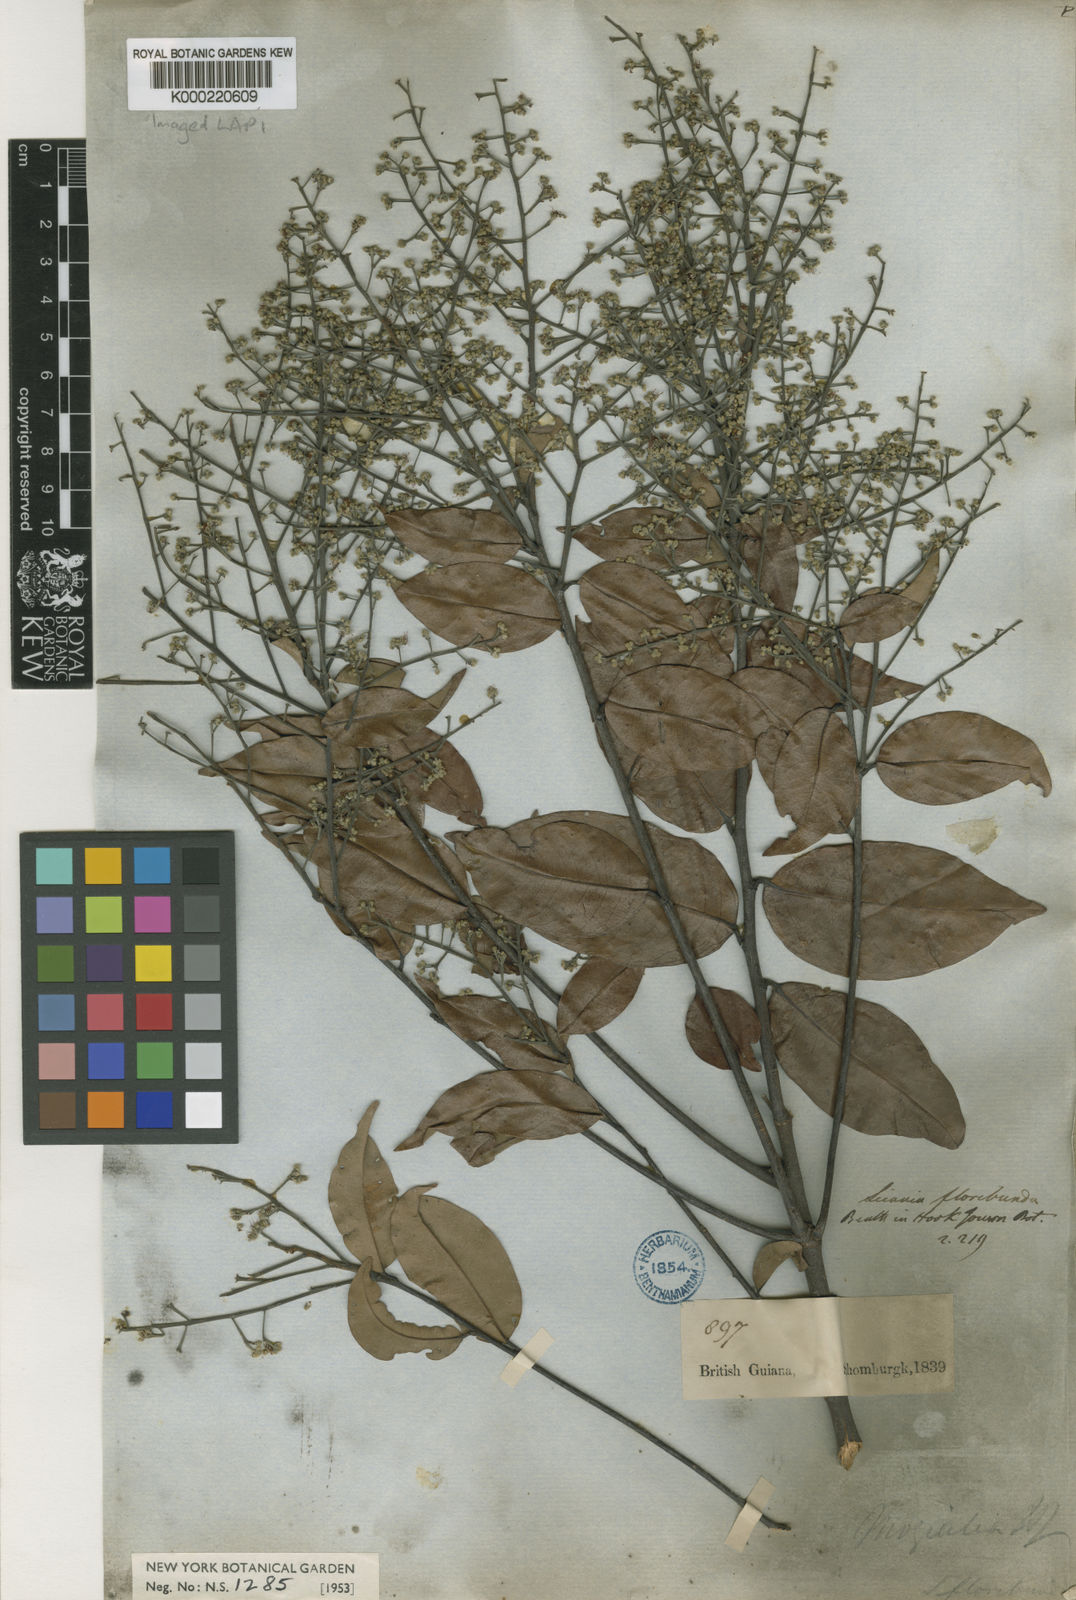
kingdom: Plantae
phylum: Tracheophyta
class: Magnoliopsida
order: Malpighiales
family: Chrysobalanaceae
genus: Leptobalanus
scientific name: Leptobalanus apetalus
